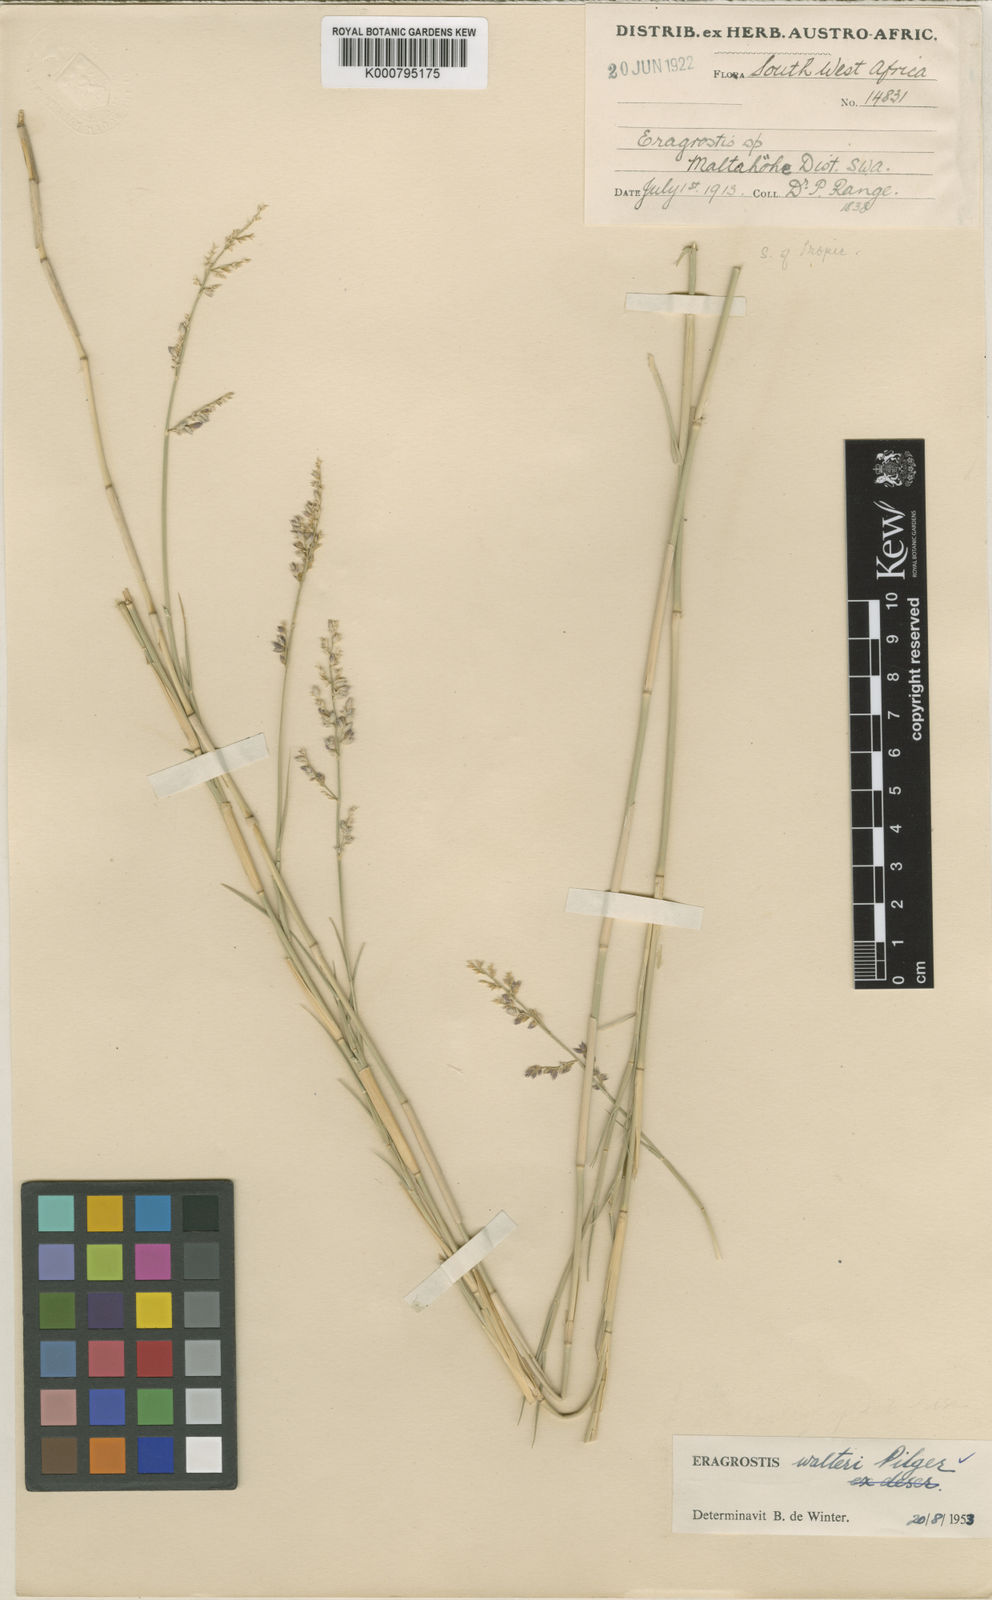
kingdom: Plantae
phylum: Tracheophyta
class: Liliopsida
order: Poales
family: Poaceae
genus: Pratochloa
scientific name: Pratochloa walteri
